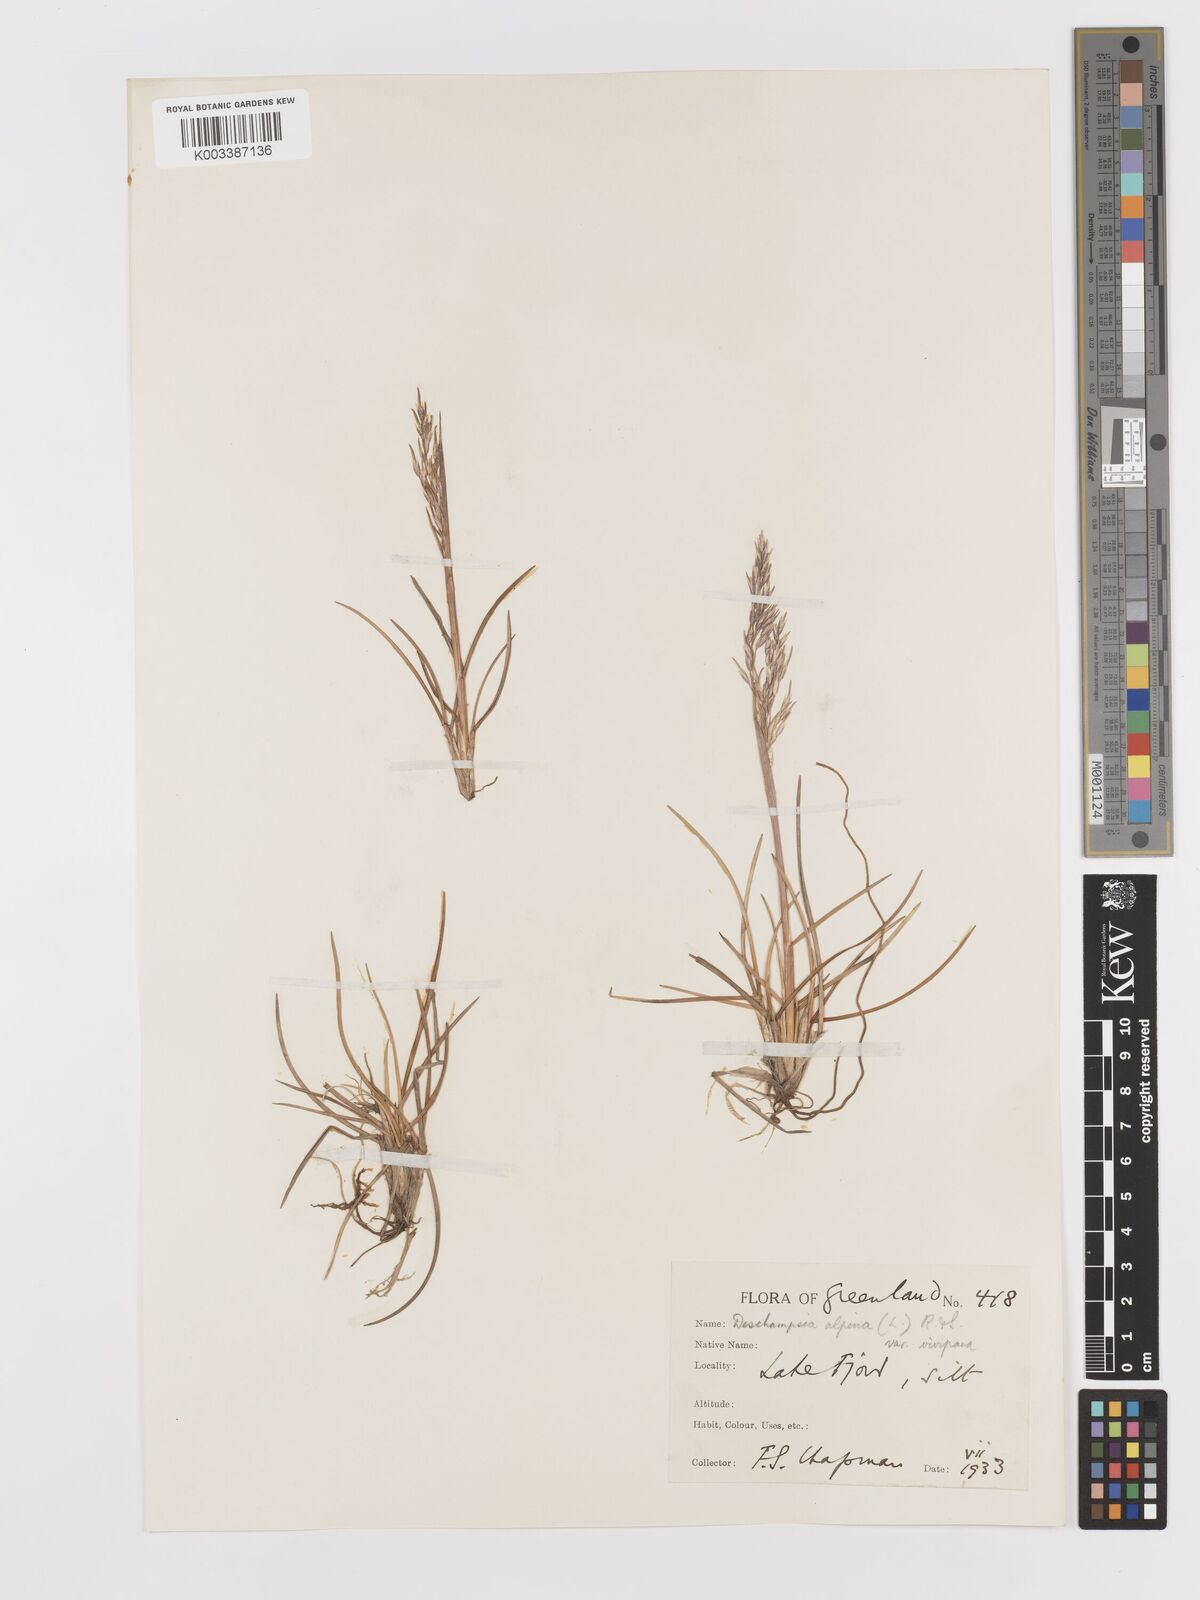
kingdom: Plantae
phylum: Tracheophyta
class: Liliopsida
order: Poales
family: Poaceae
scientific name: Poaceae
